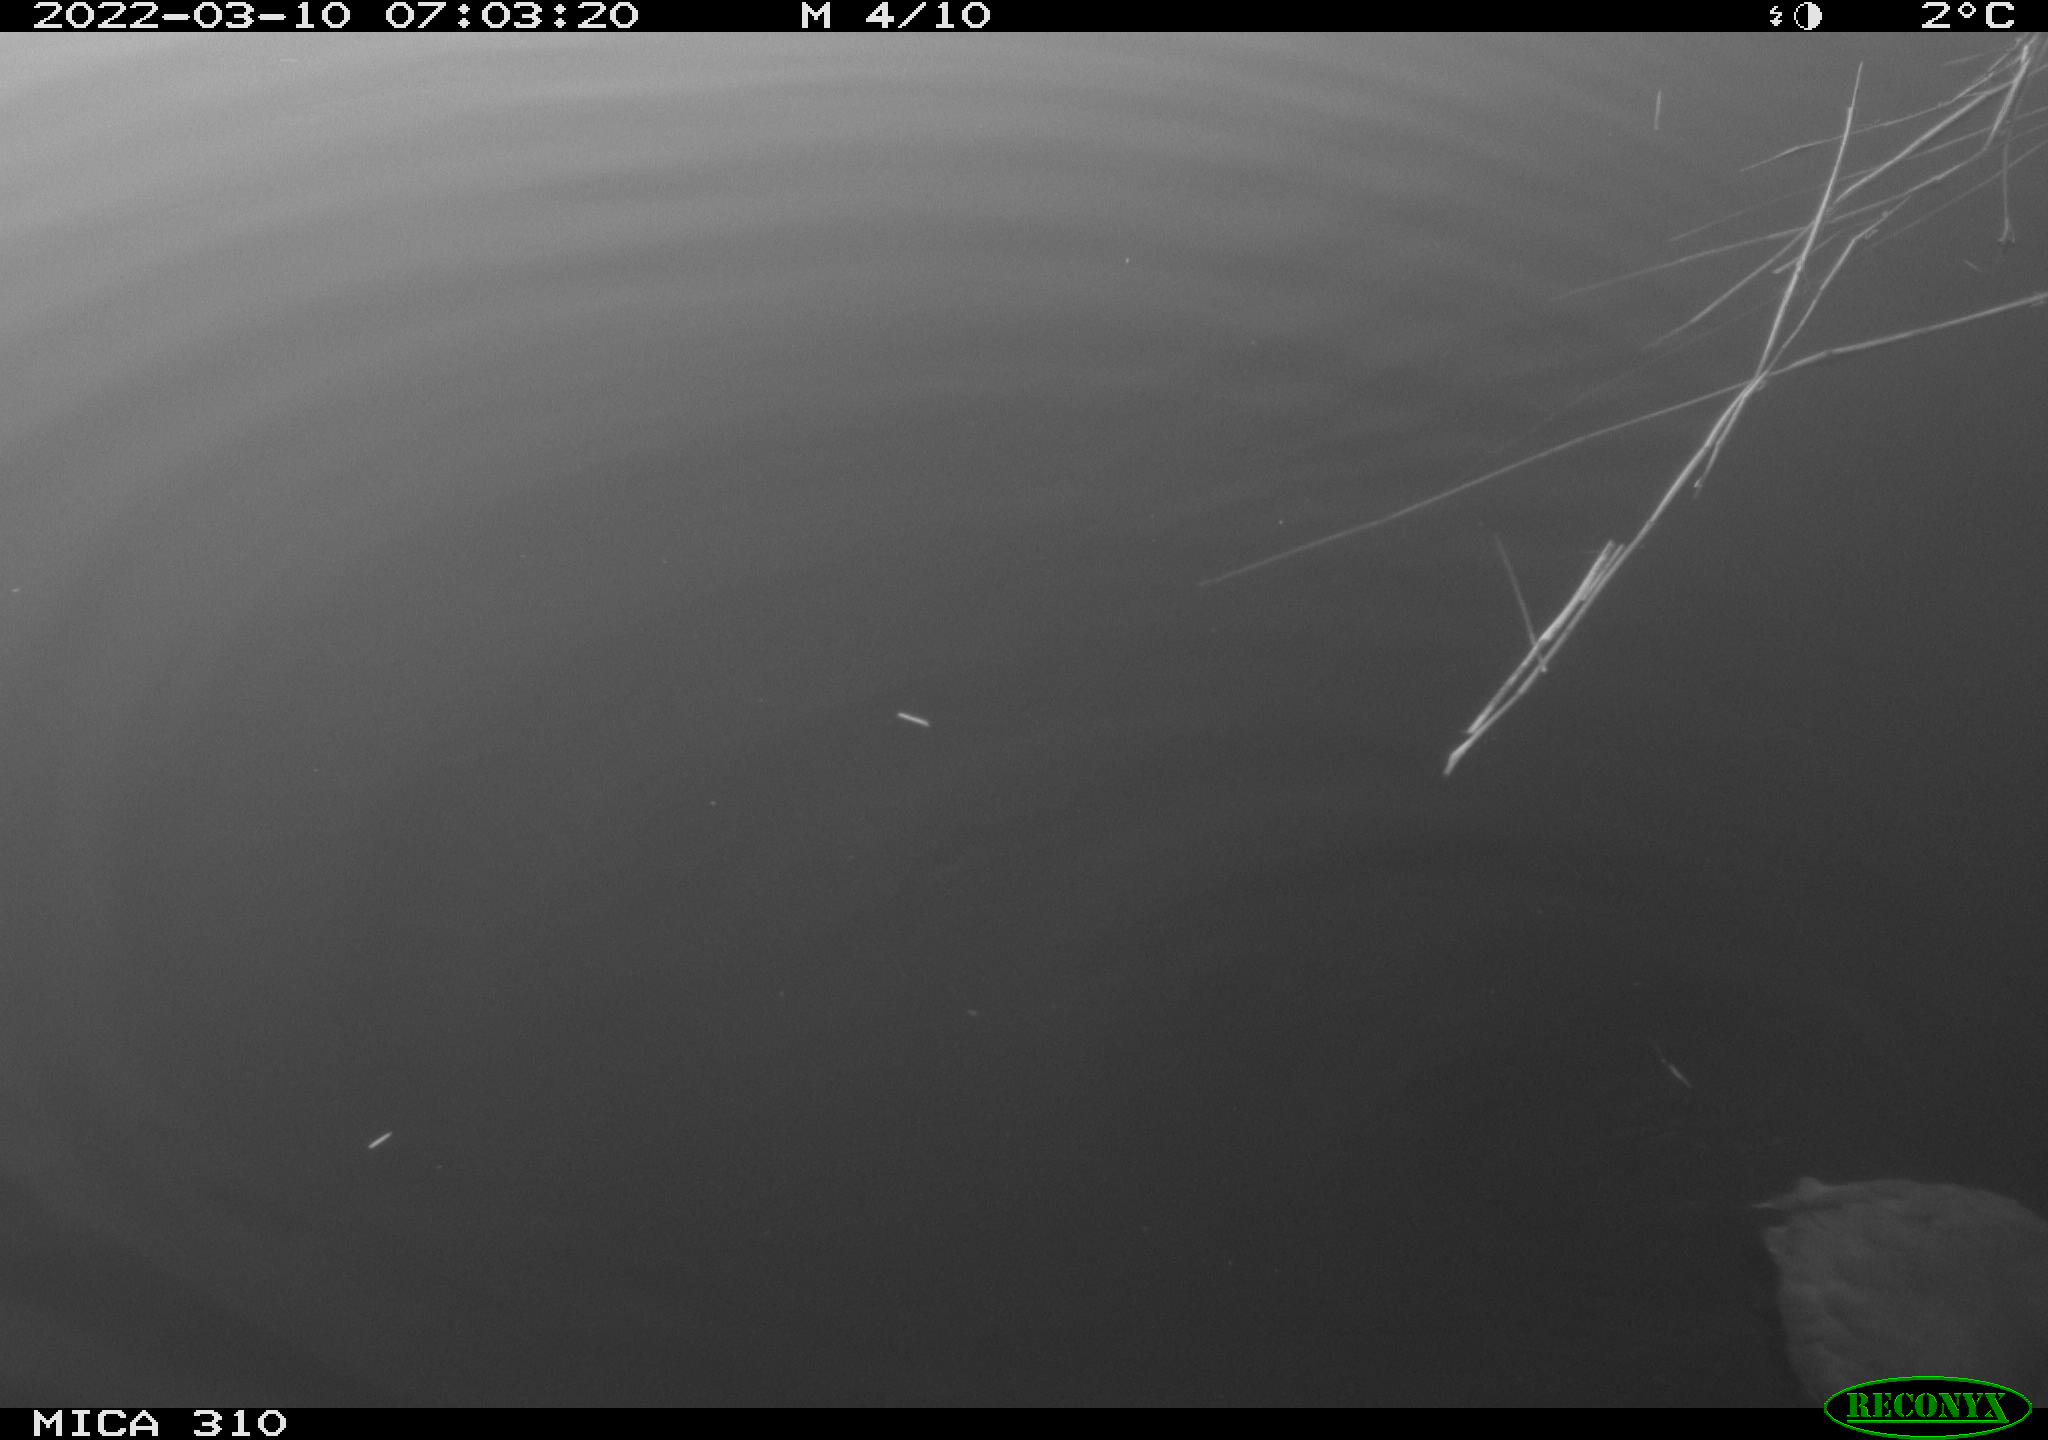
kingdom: Animalia
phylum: Chordata
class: Aves
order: Gruiformes
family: Rallidae
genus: Fulica
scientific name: Fulica atra
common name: Eurasian coot
